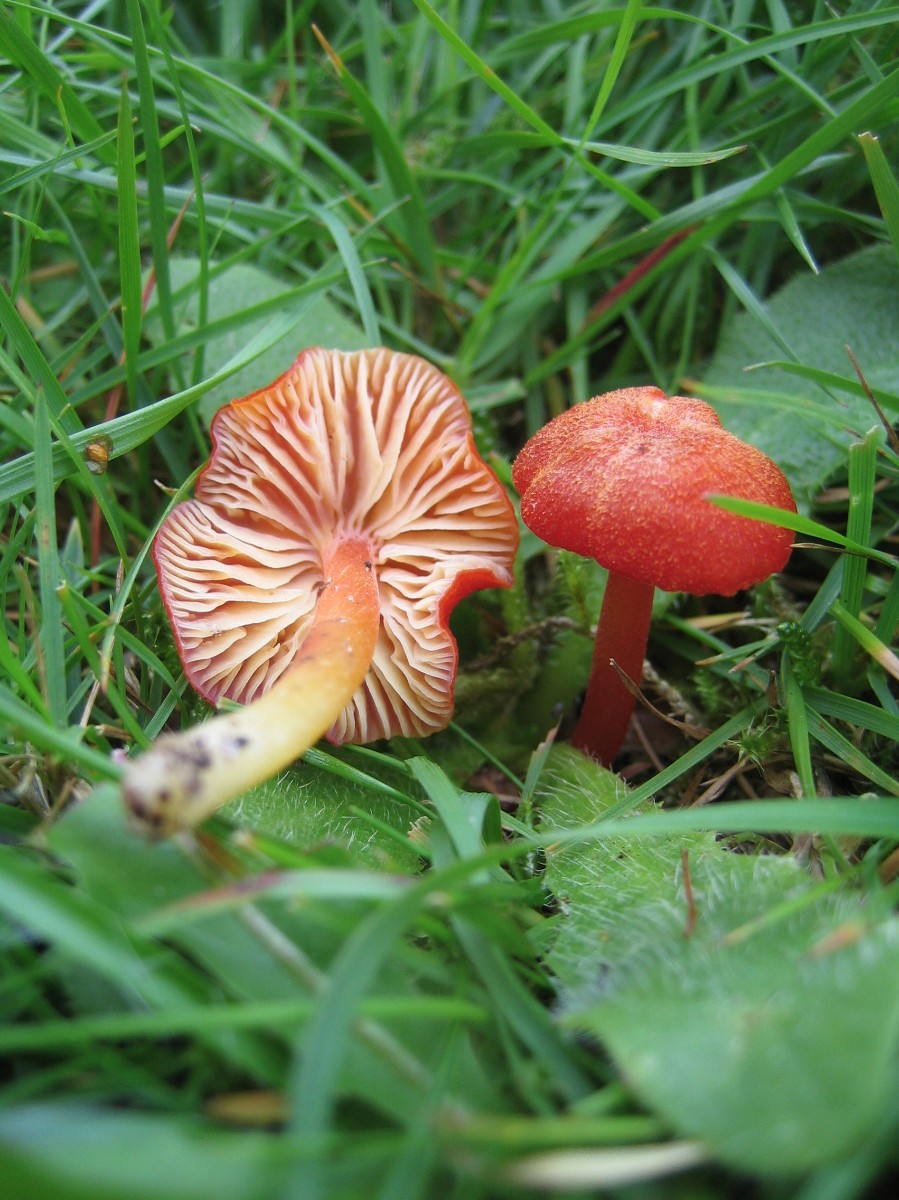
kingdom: Fungi
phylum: Basidiomycota
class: Agaricomycetes
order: Agaricales
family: Hygrophoraceae
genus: Hygrocybe
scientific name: Hygrocybe helobia
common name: hvidløgs-vokshat
